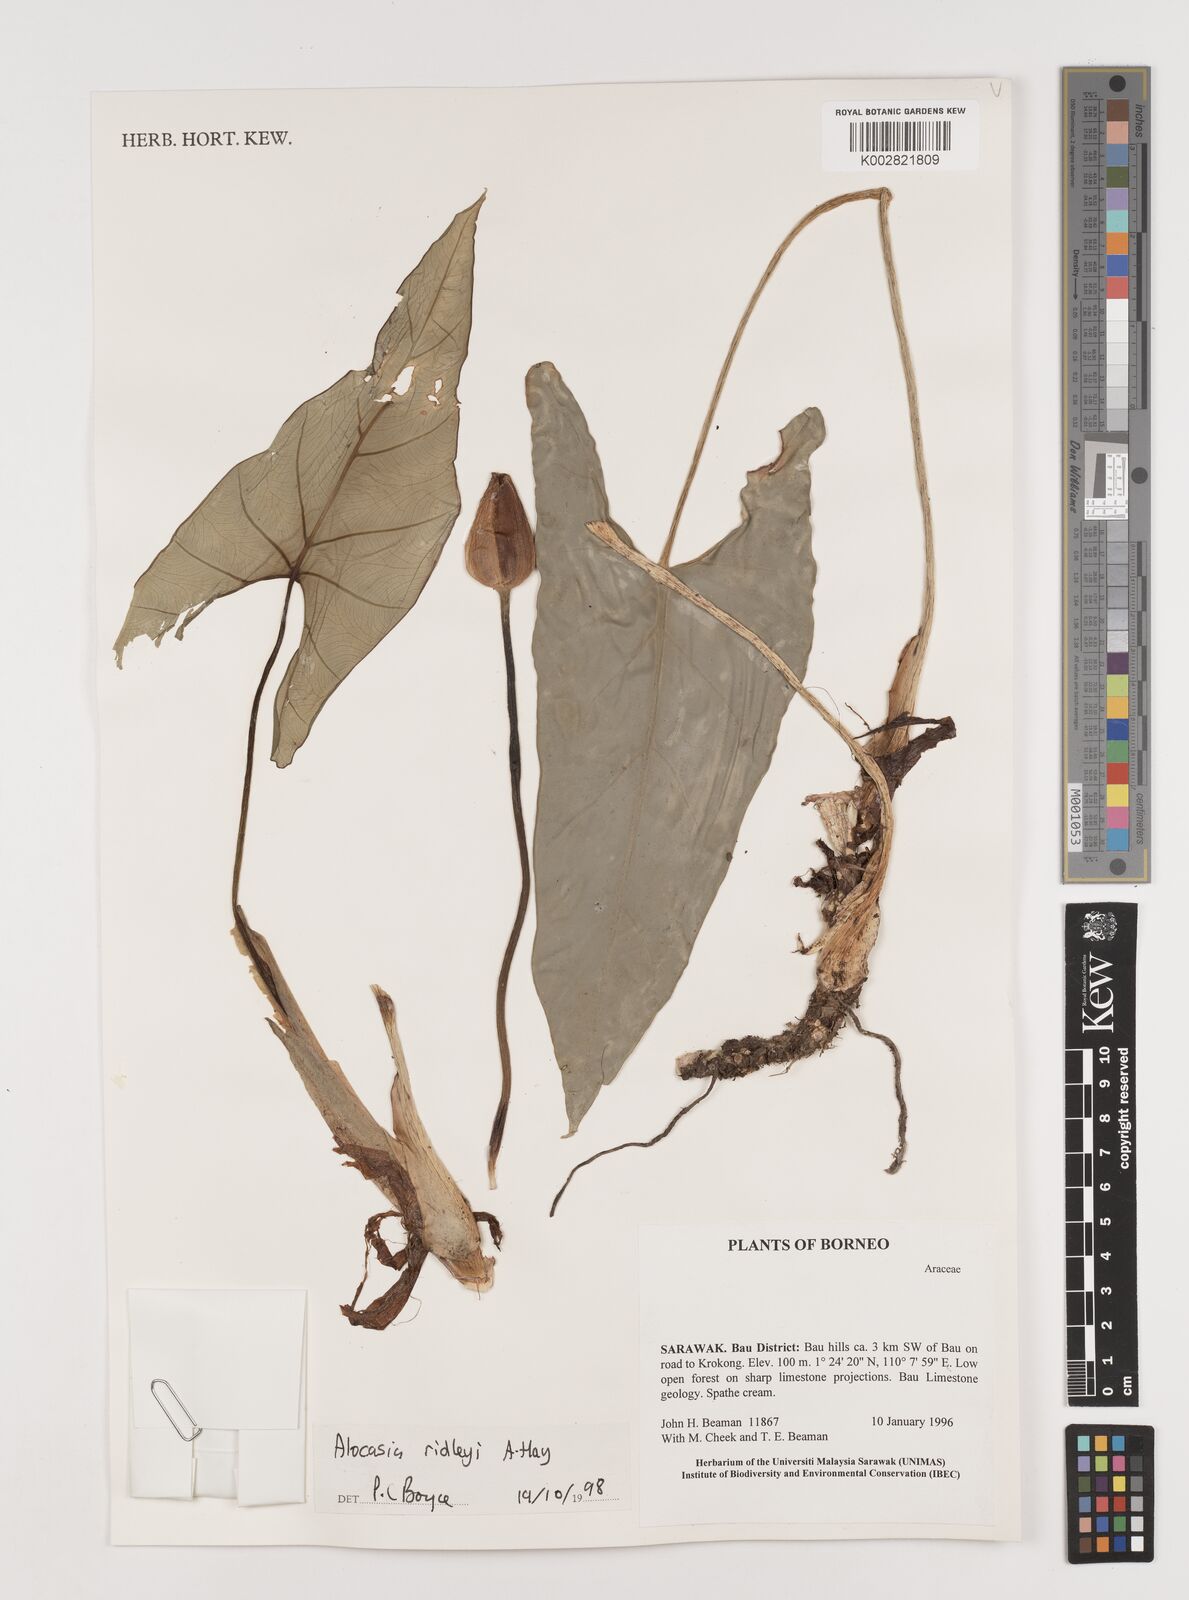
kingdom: Plantae
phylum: Tracheophyta
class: Liliopsida
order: Alismatales
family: Araceae
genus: Alocasia
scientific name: Alocasia ridleyi
